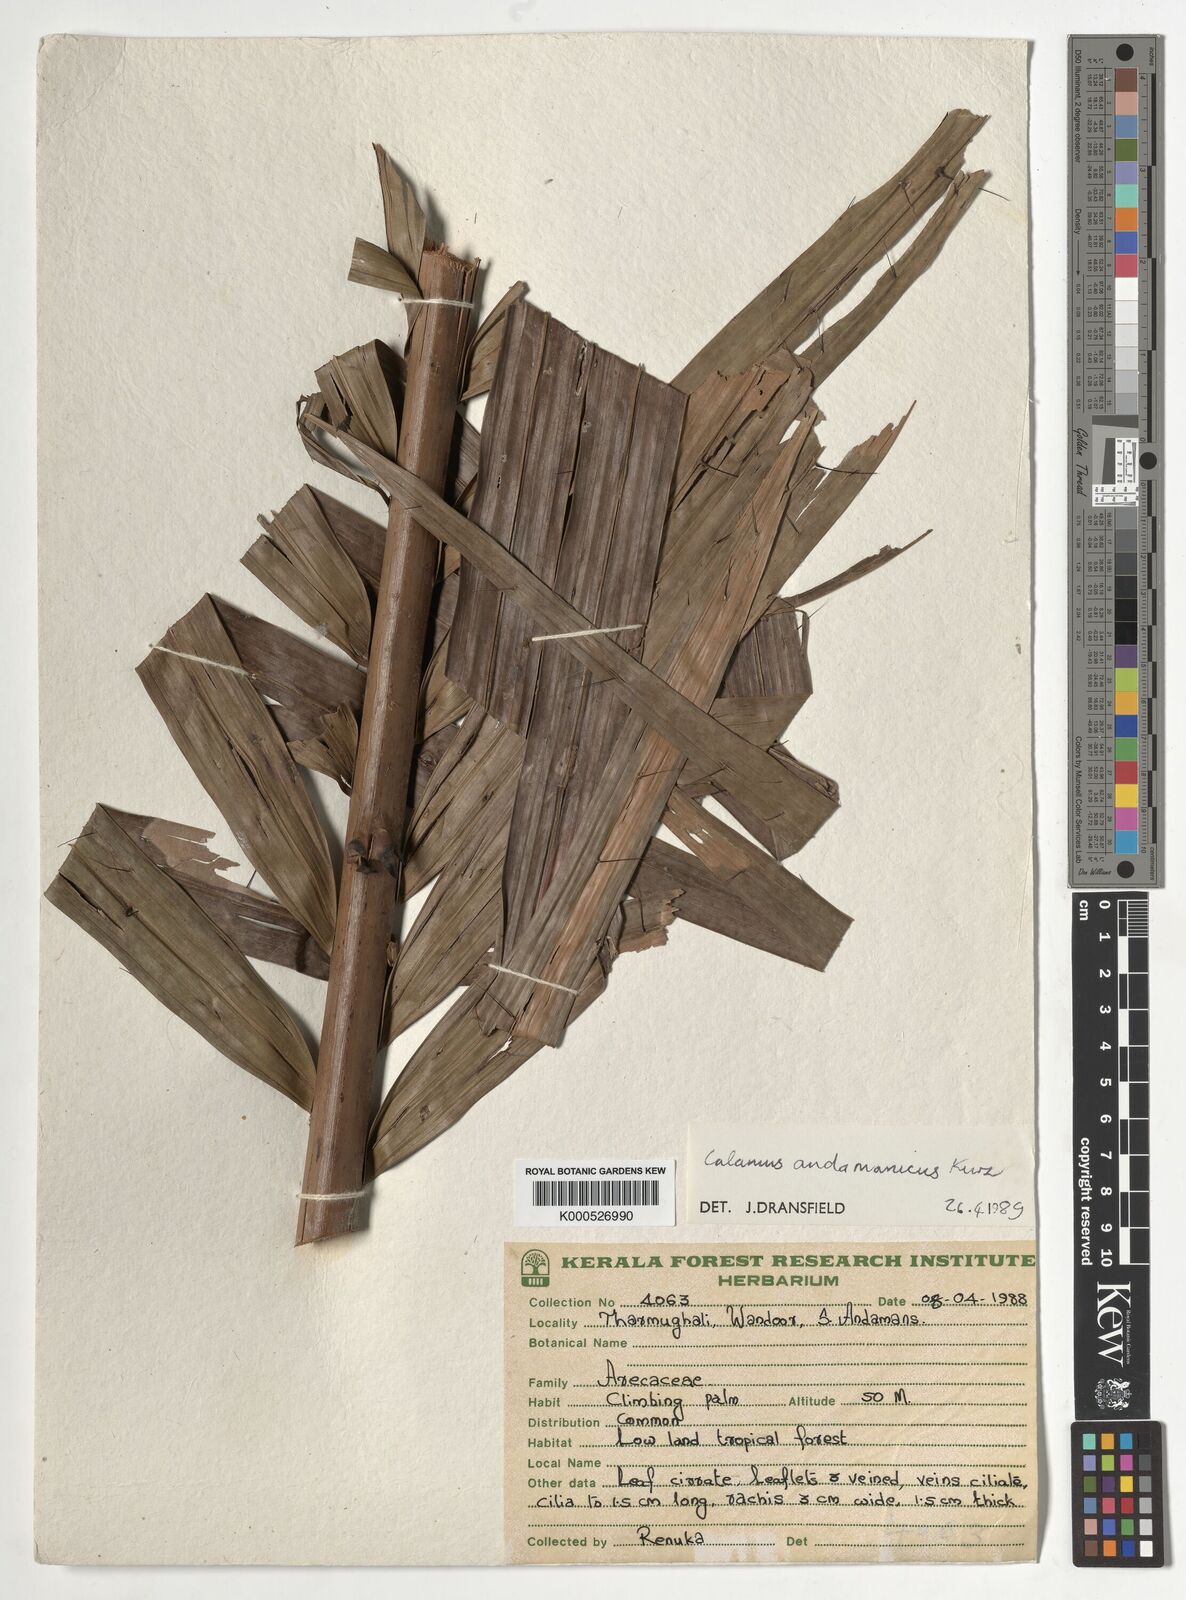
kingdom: Plantae
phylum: Tracheophyta
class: Liliopsida
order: Arecales
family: Arecaceae
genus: Calamus
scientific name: Calamus andamanicus
